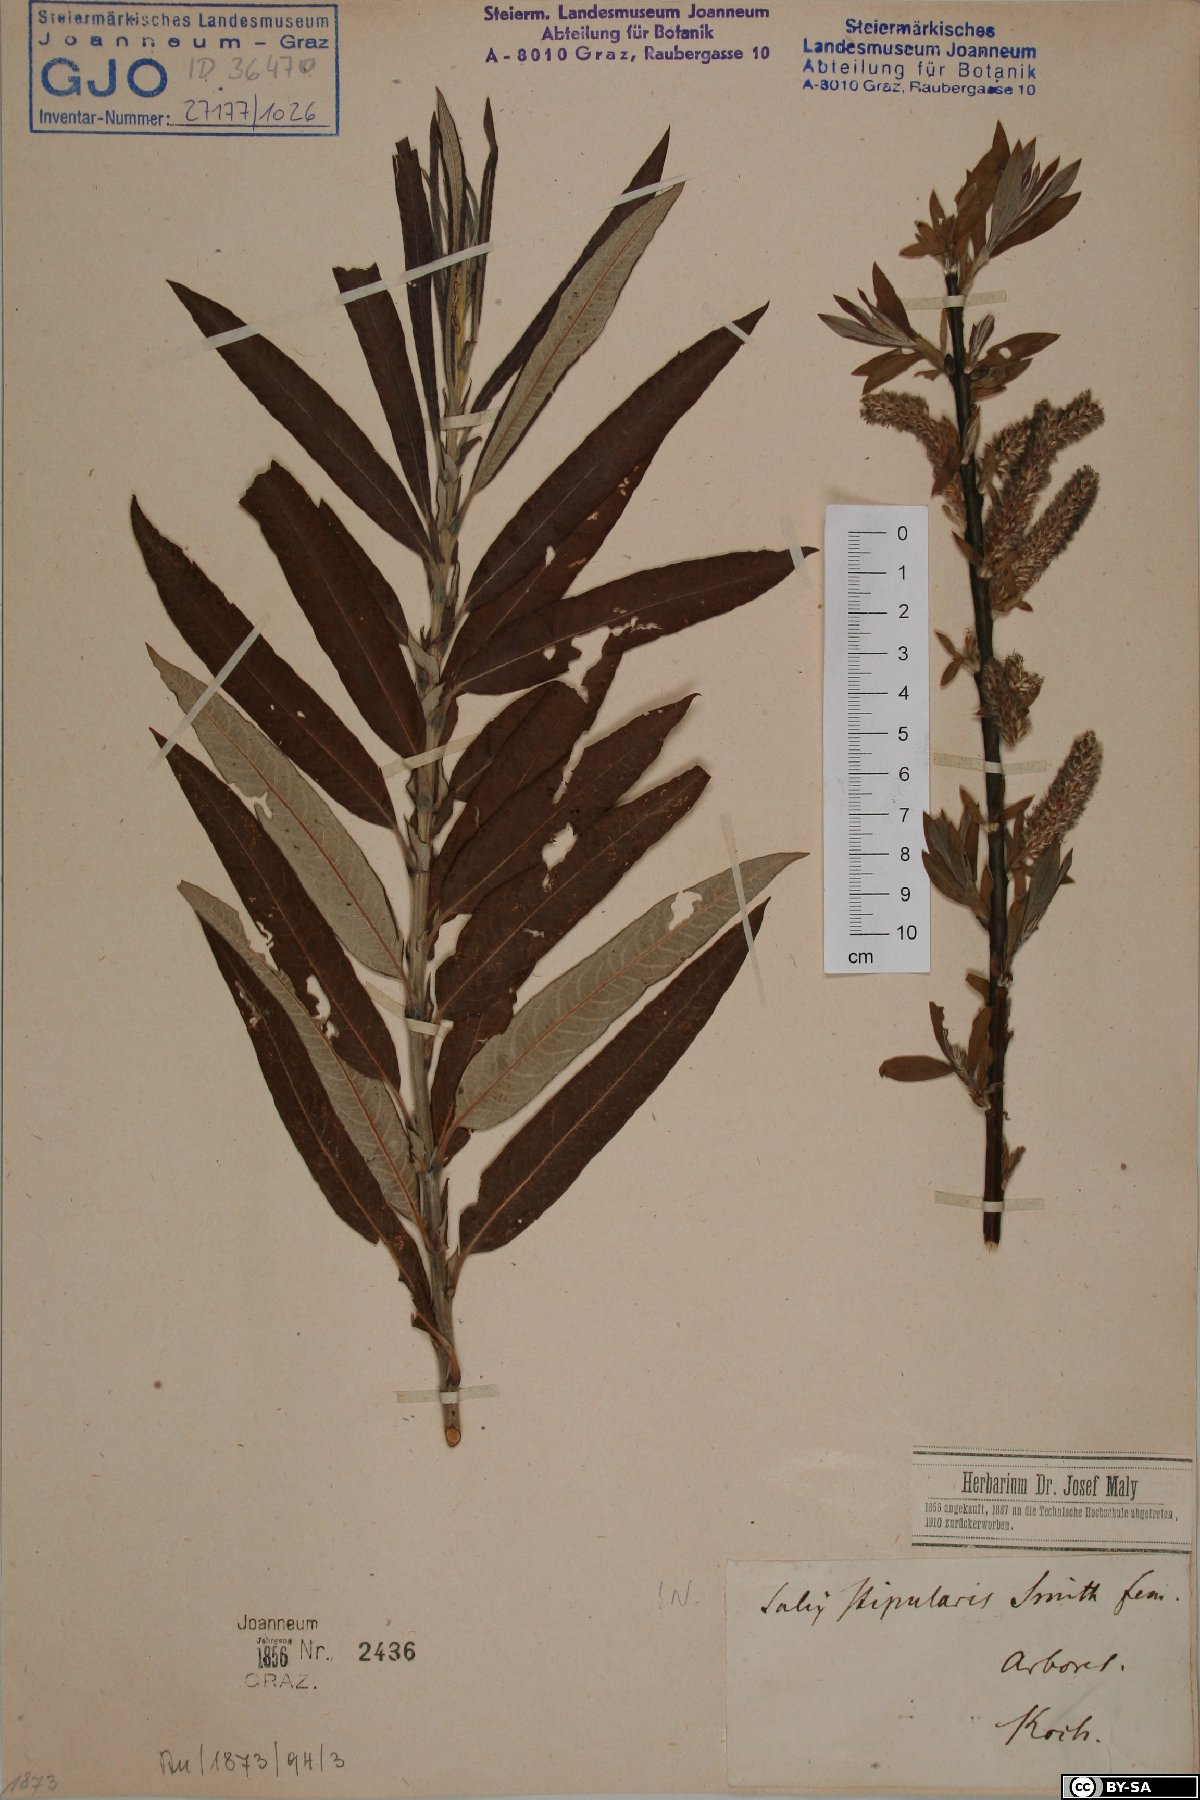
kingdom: Plantae
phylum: Tracheophyta
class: Magnoliopsida
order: Malpighiales
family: Salicaceae
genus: Salix
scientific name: Salix stipularis
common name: Eared osier
